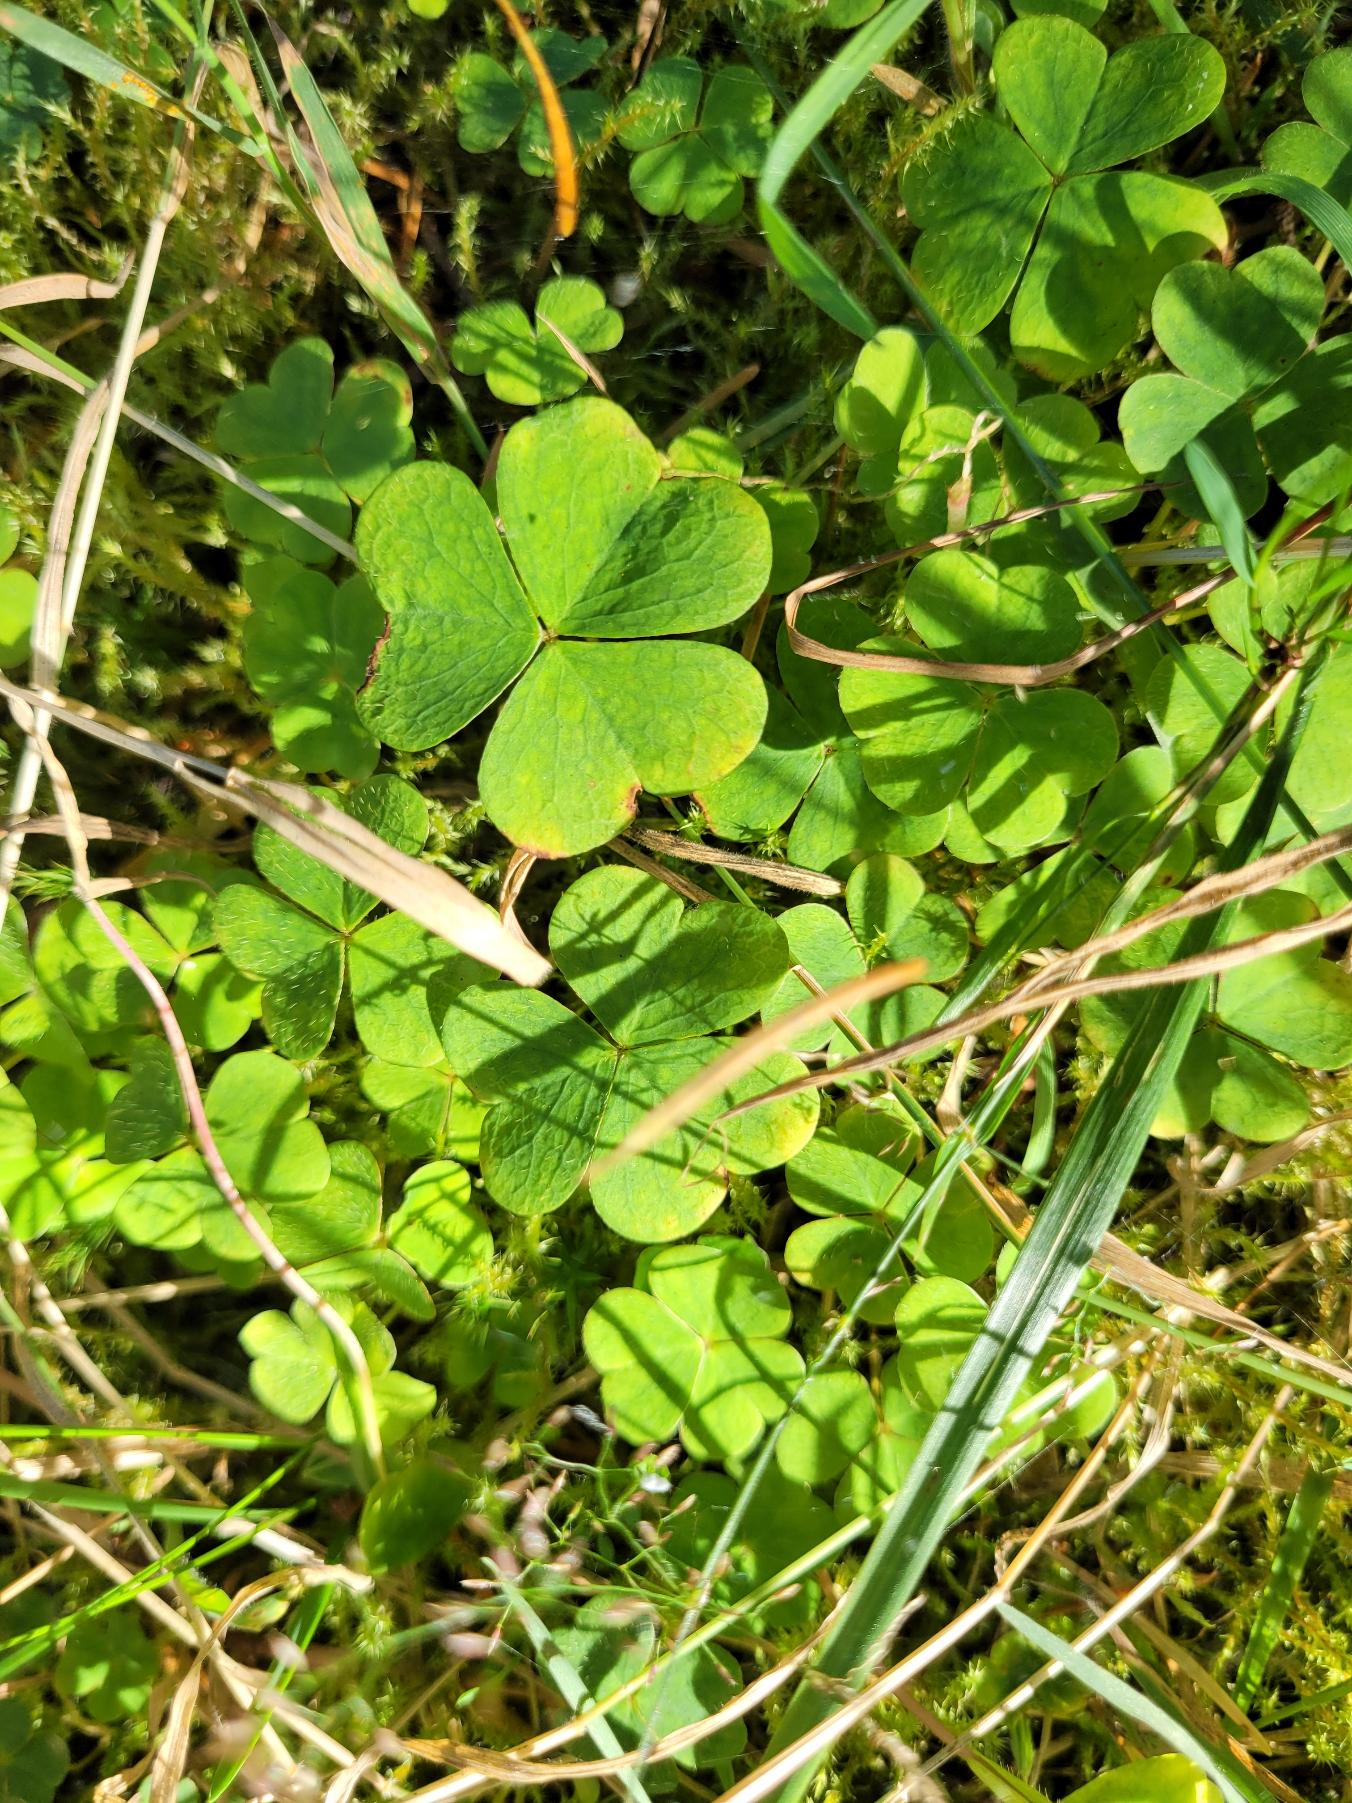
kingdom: Plantae
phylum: Tracheophyta
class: Magnoliopsida
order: Oxalidales
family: Oxalidaceae
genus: Oxalis
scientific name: Oxalis acetosella
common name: Skovsyre
